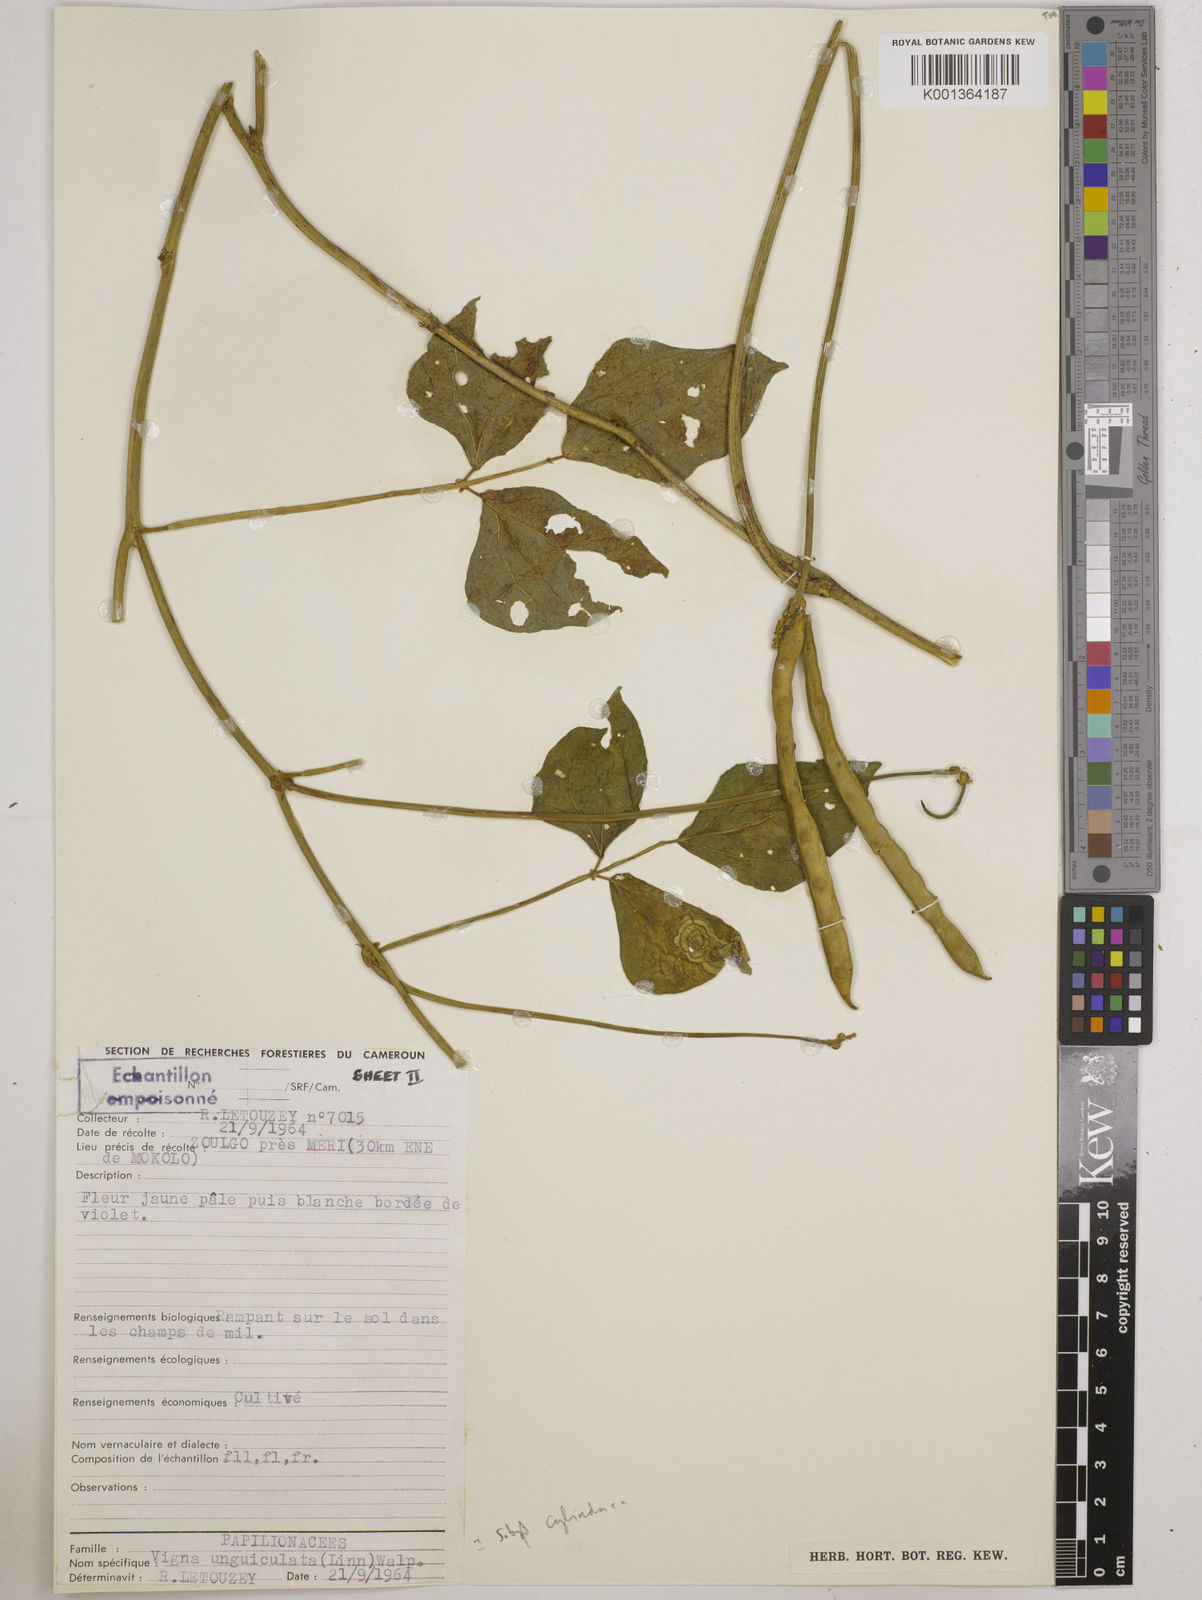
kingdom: Plantae
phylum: Tracheophyta
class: Magnoliopsida
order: Fabales
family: Fabaceae
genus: Vigna
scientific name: Vigna
